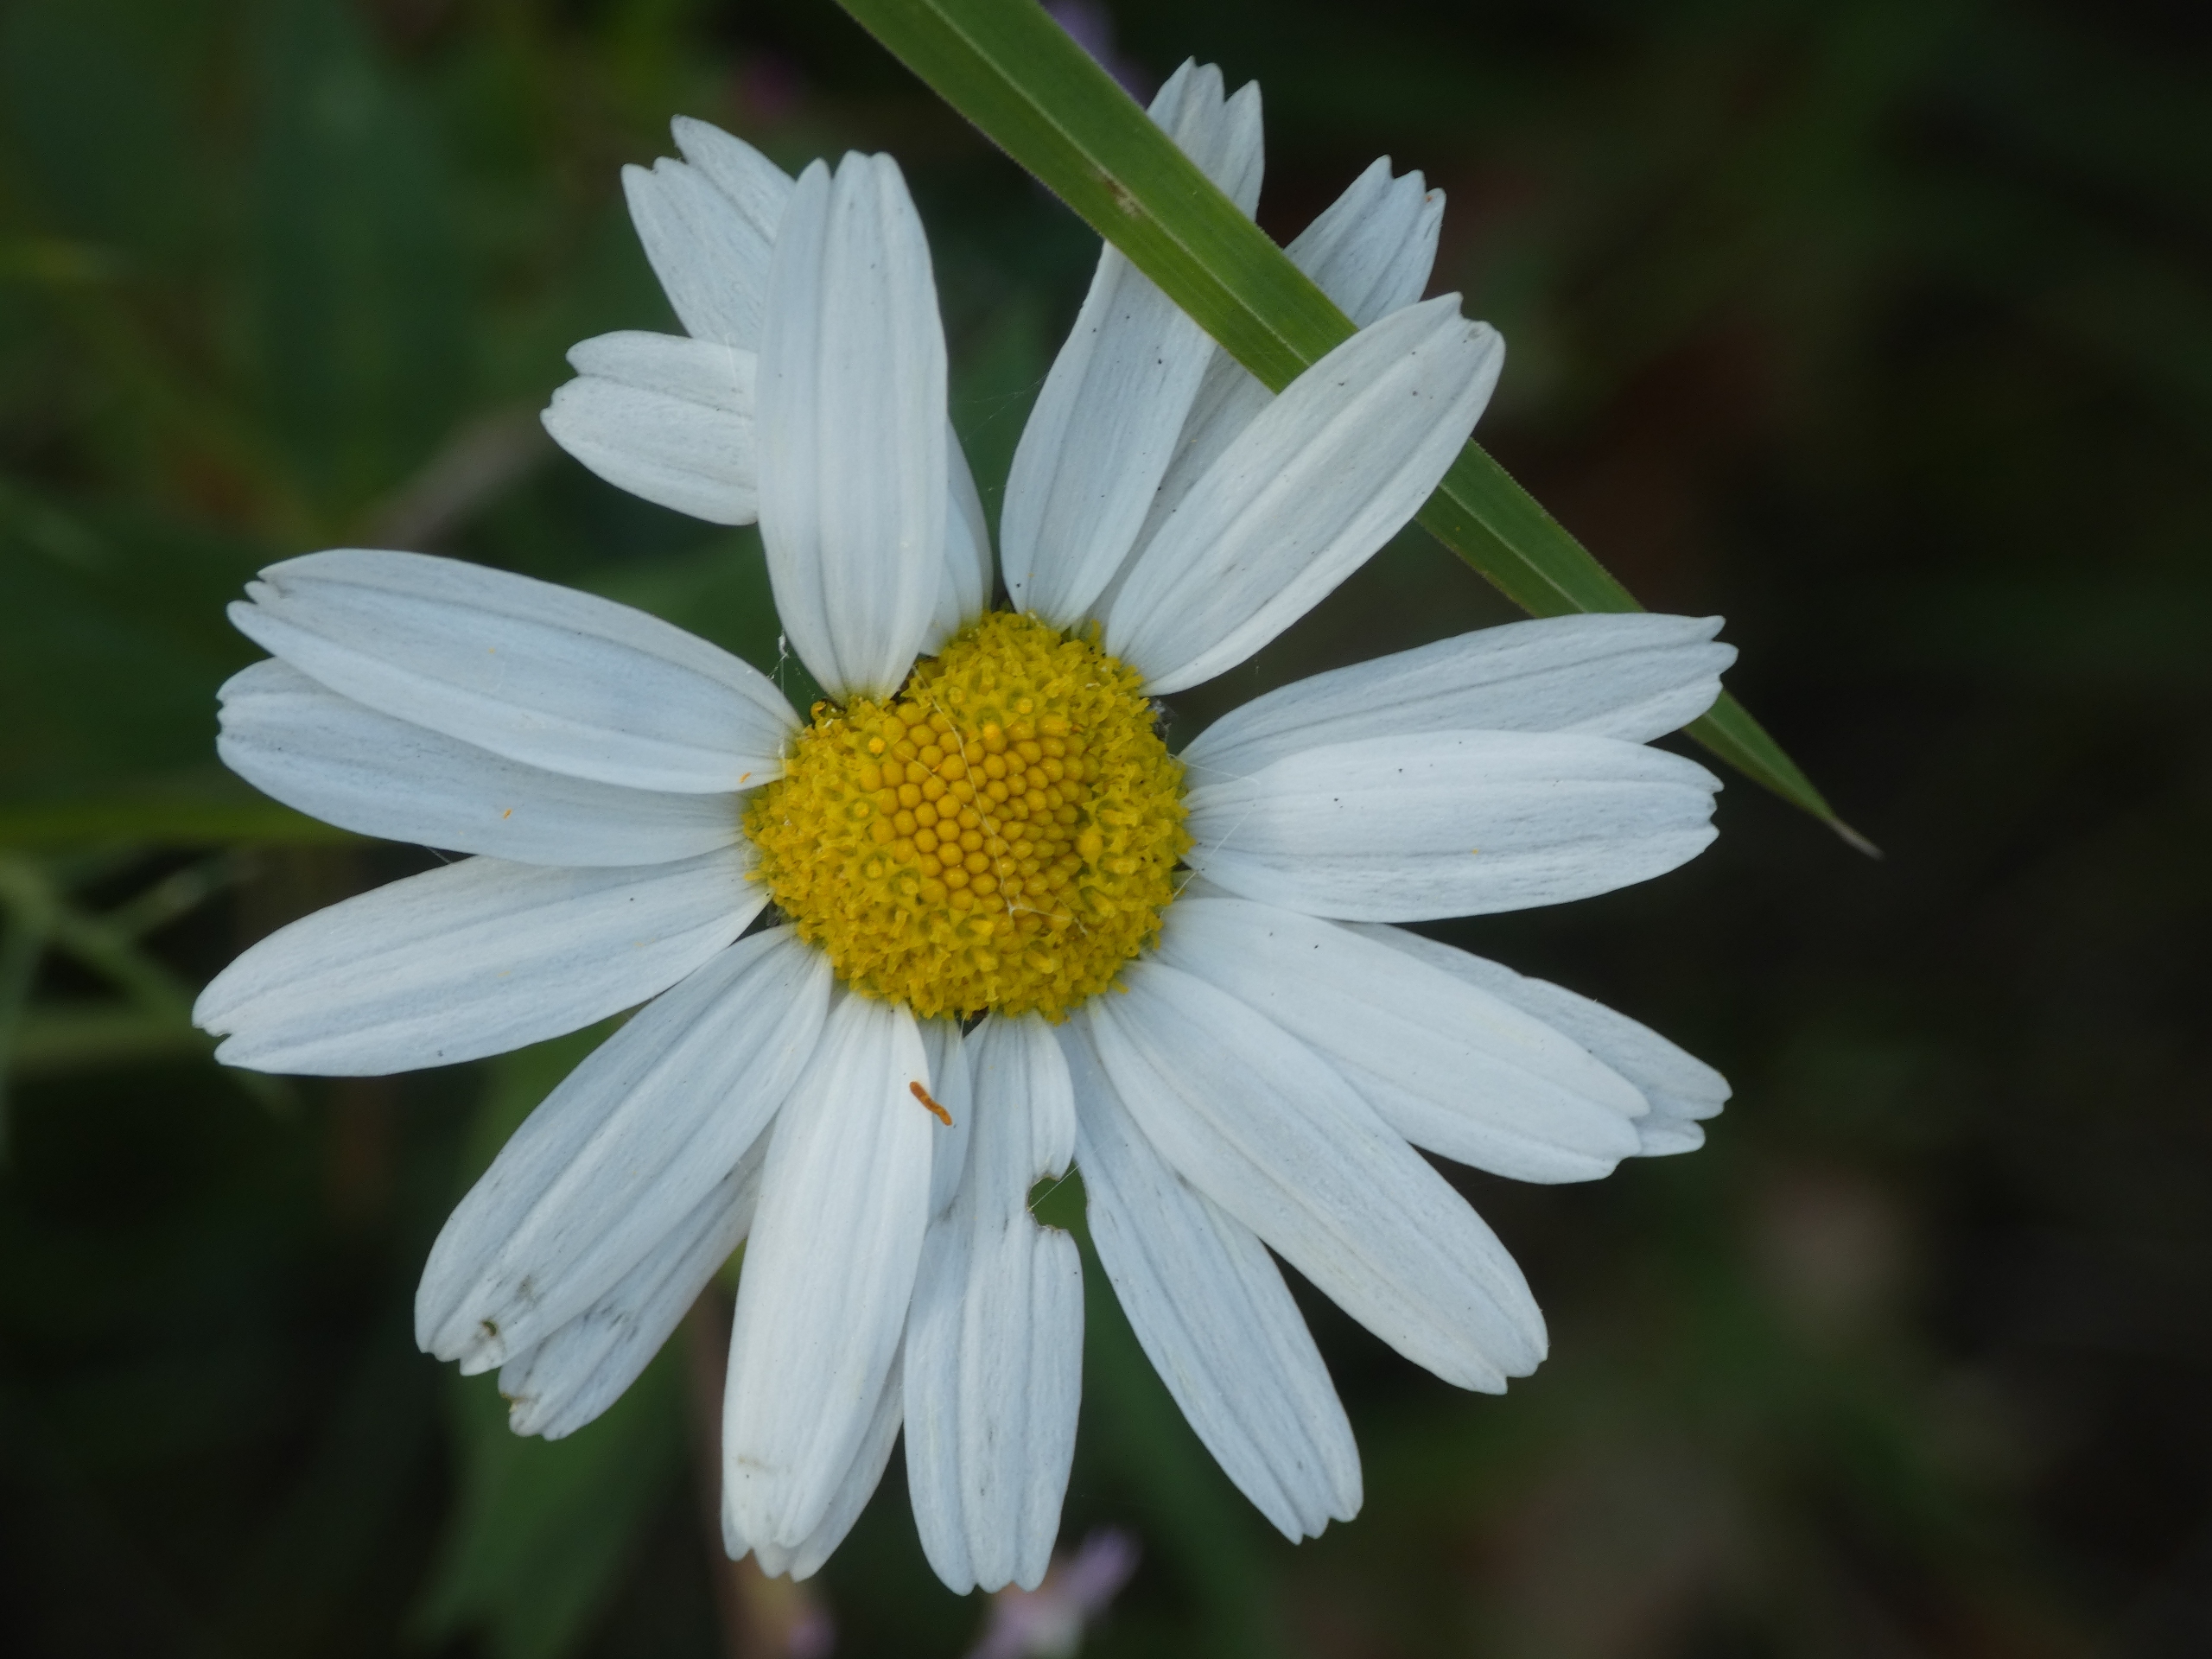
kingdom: Plantae
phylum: Tracheophyta
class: Magnoliopsida
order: Asterales
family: Asteraceae
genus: Tripleurospermum
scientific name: Tripleurospermum inodorum
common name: Lugtløs kamille
